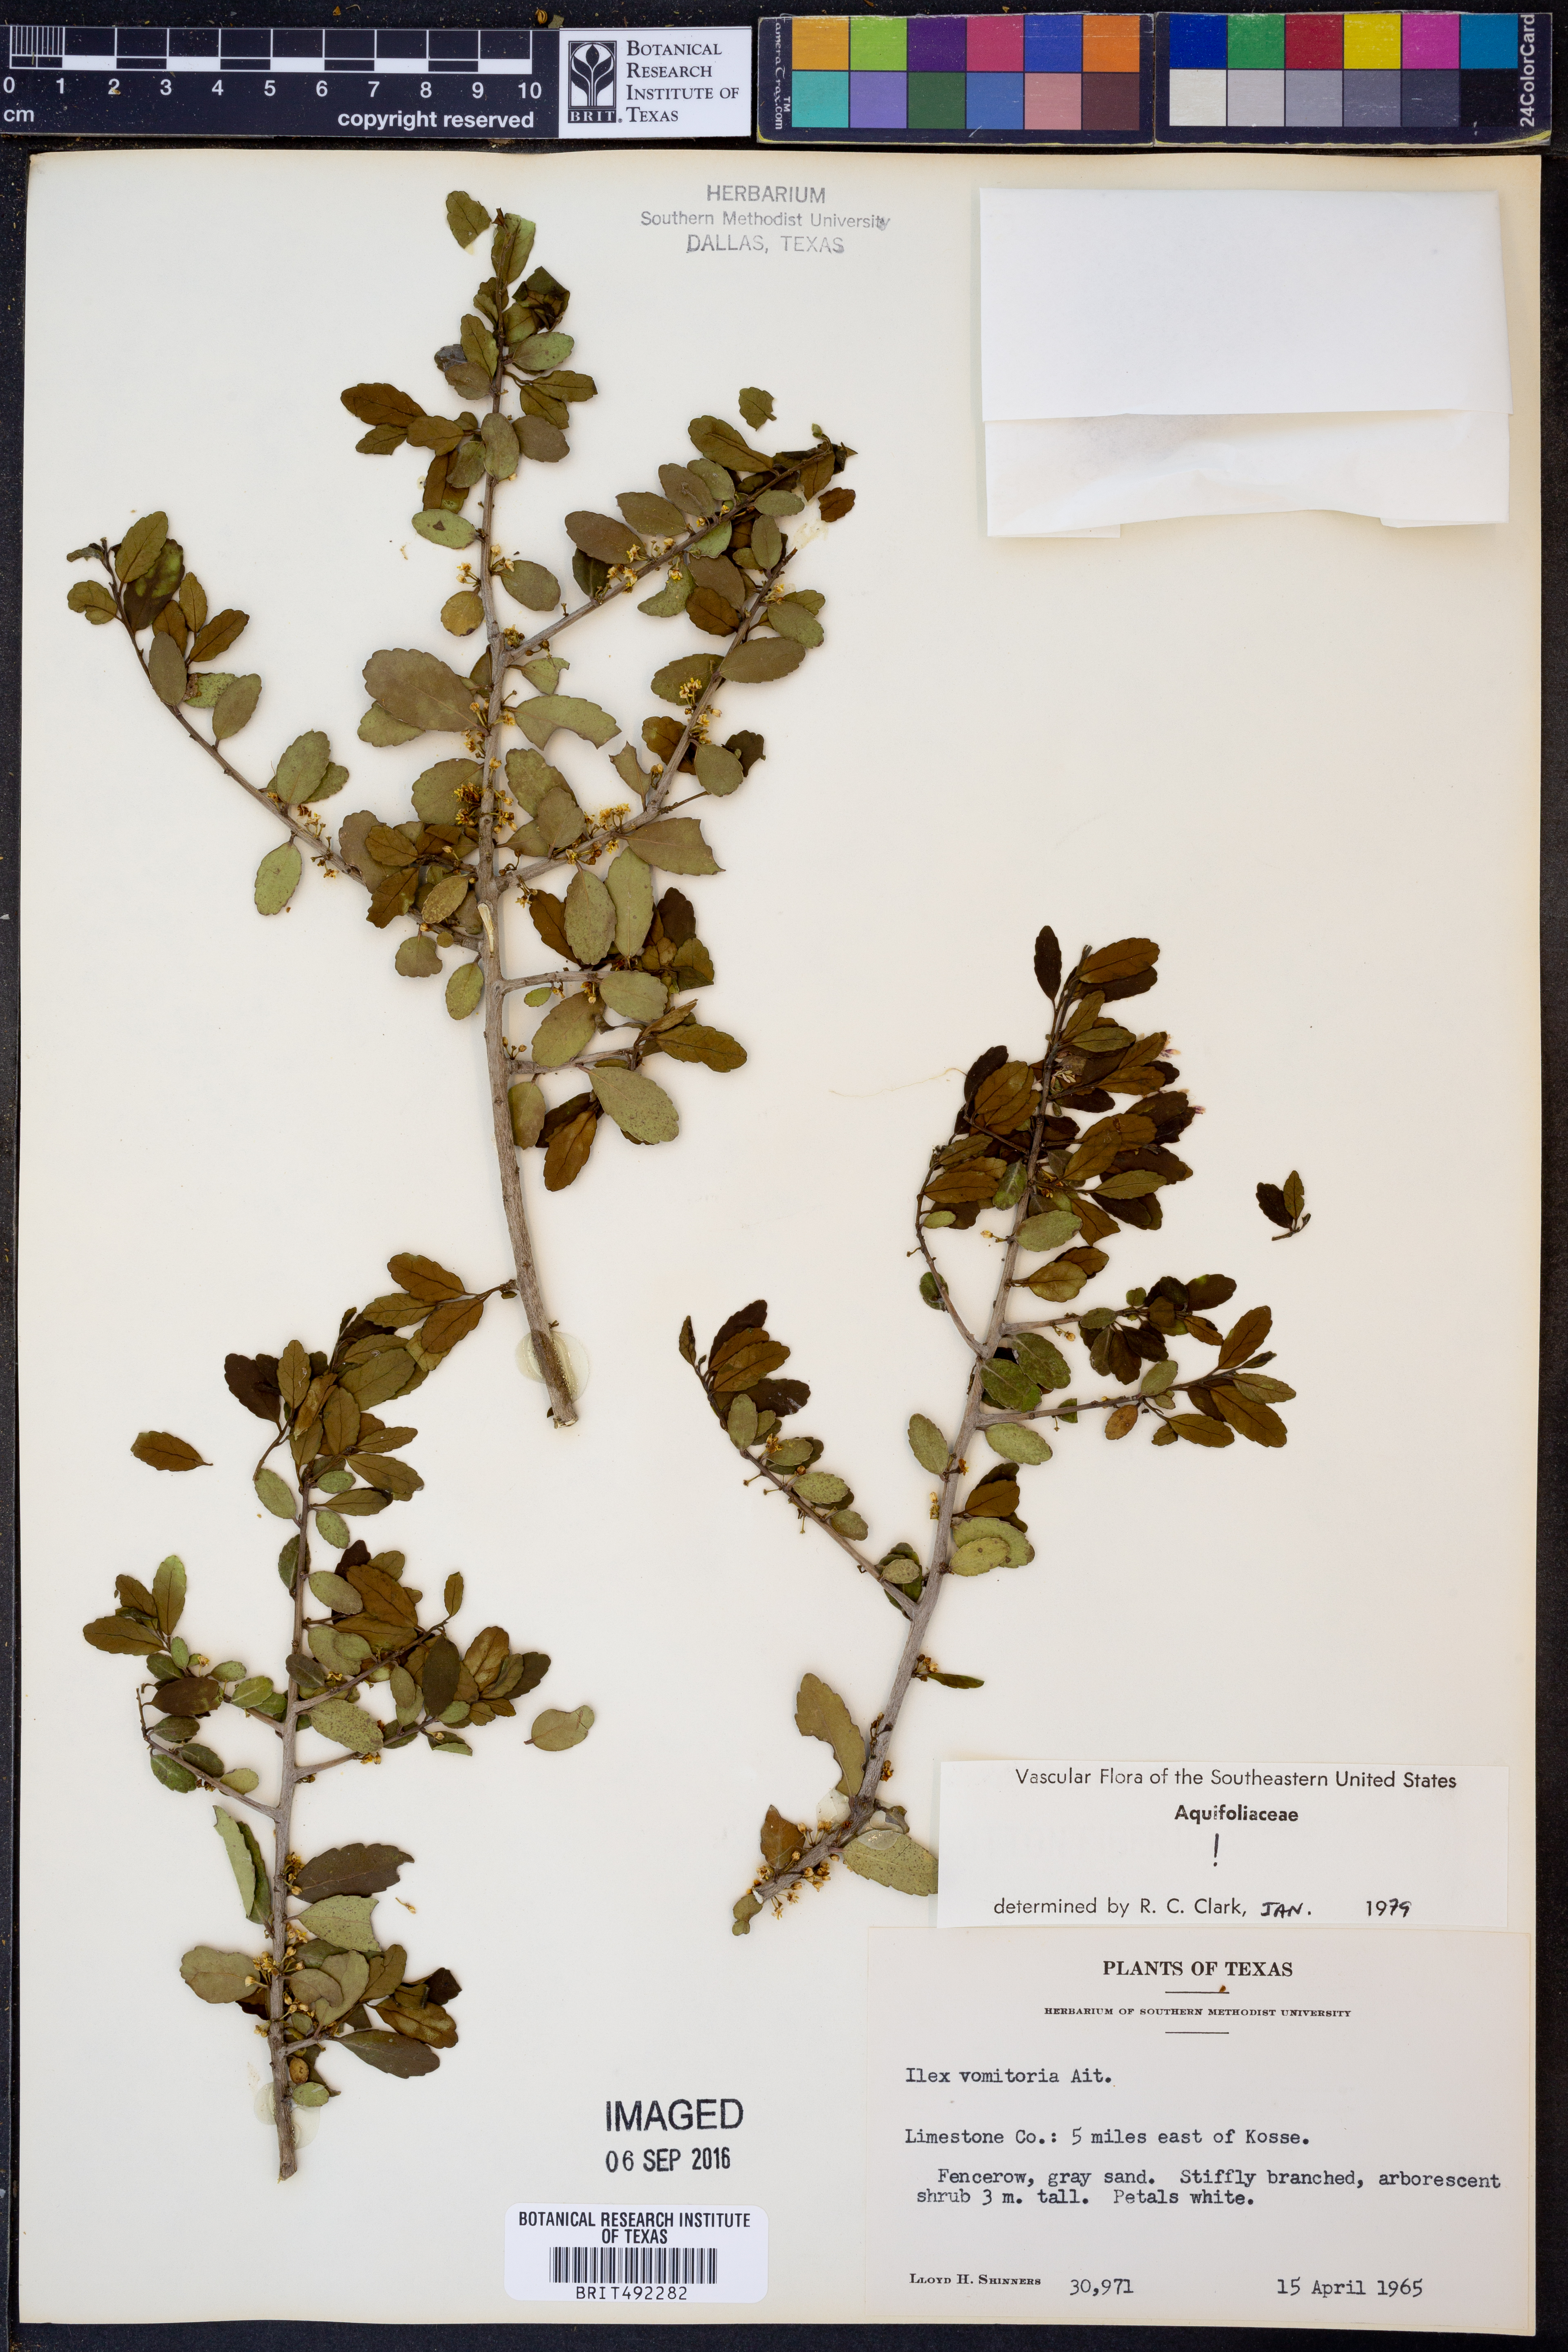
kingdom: Plantae
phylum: Tracheophyta
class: Magnoliopsida
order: Aquifoliales
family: Aquifoliaceae
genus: Ilex
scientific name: Ilex vomitoria
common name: Yaupon holly
